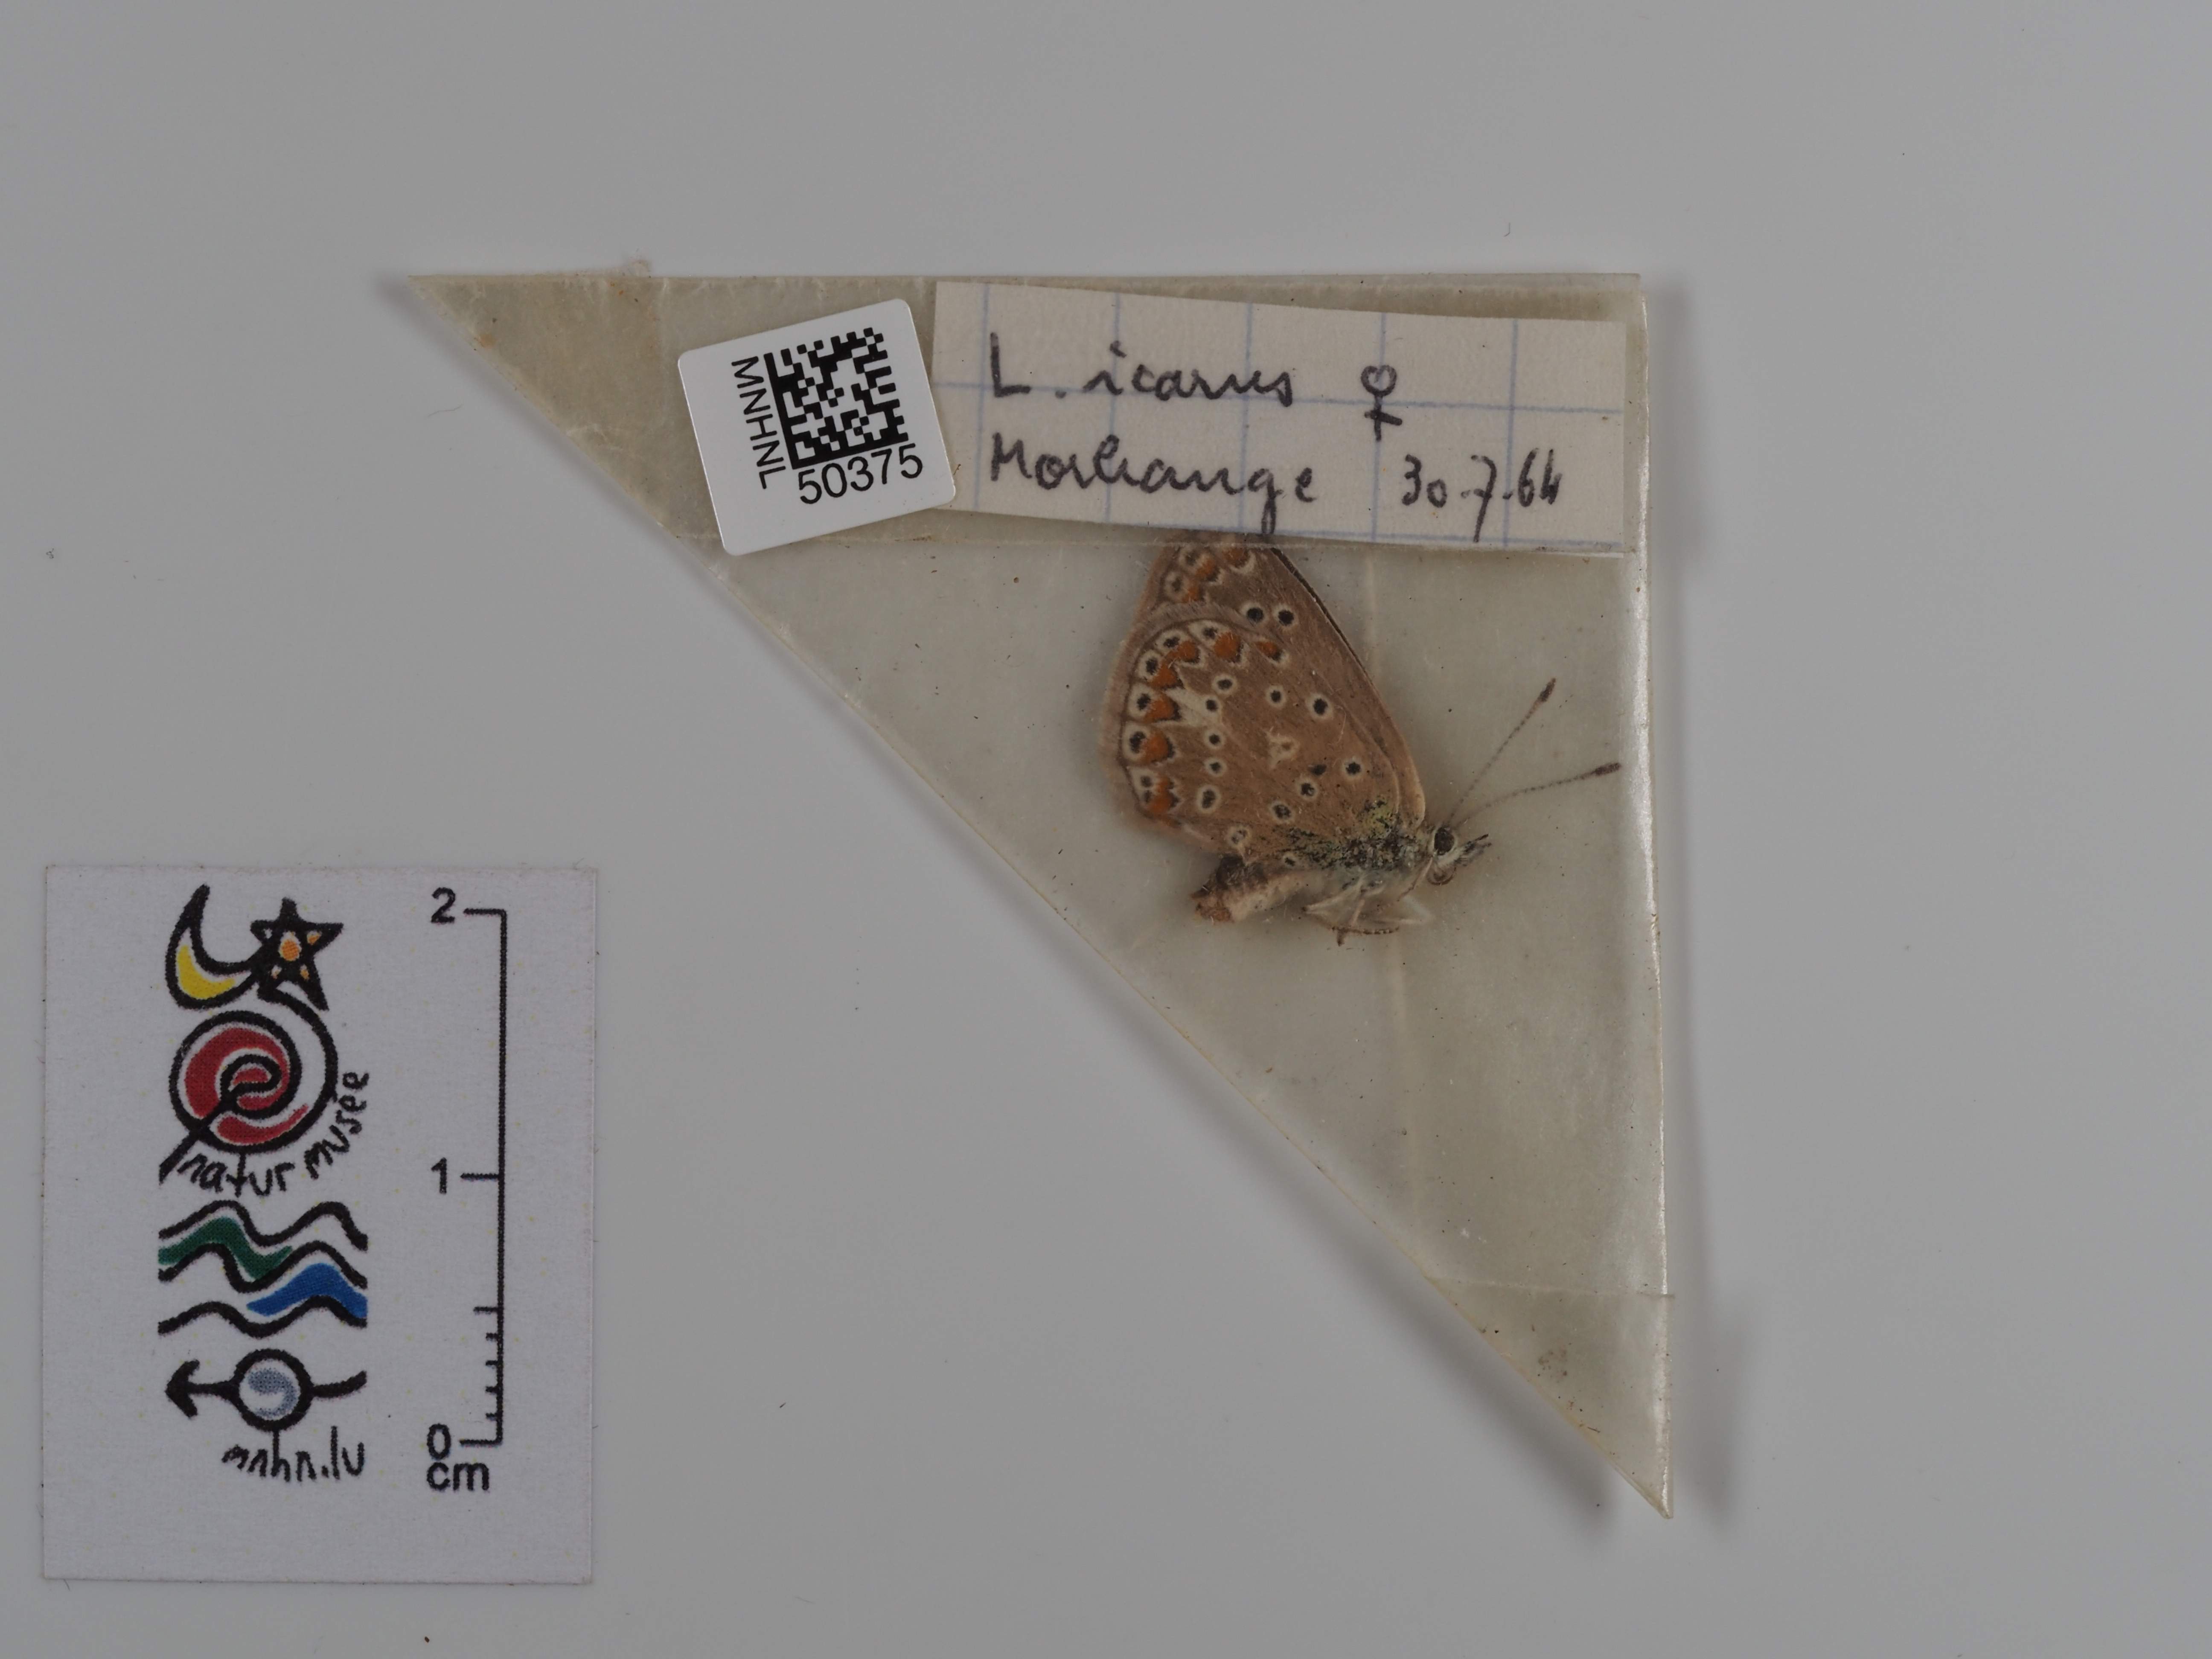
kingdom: Animalia
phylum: Arthropoda
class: Insecta
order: Lepidoptera
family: Lycaenidae
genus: Polyommatus
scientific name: Polyommatus icarus
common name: Common blue
